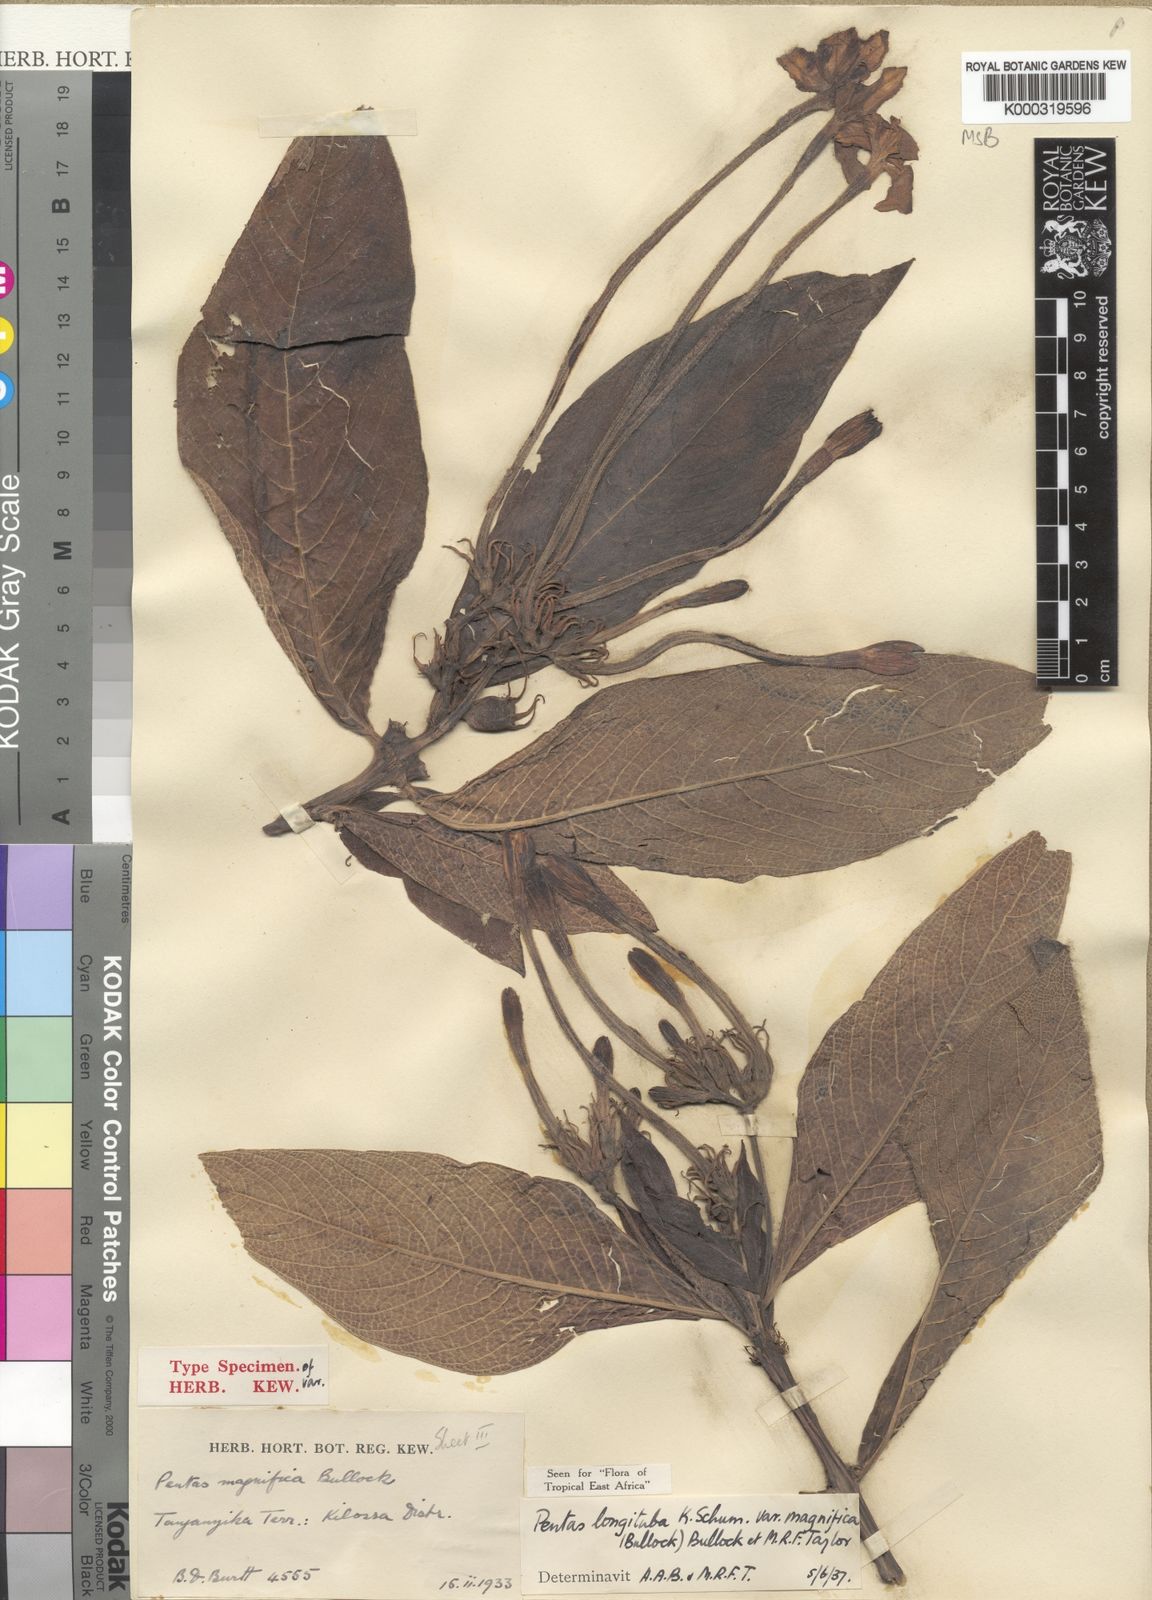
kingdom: Plantae
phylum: Tracheophyta
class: Magnoliopsida
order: Gentianales
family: Rubiaceae
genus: Pentas
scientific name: Pentas
